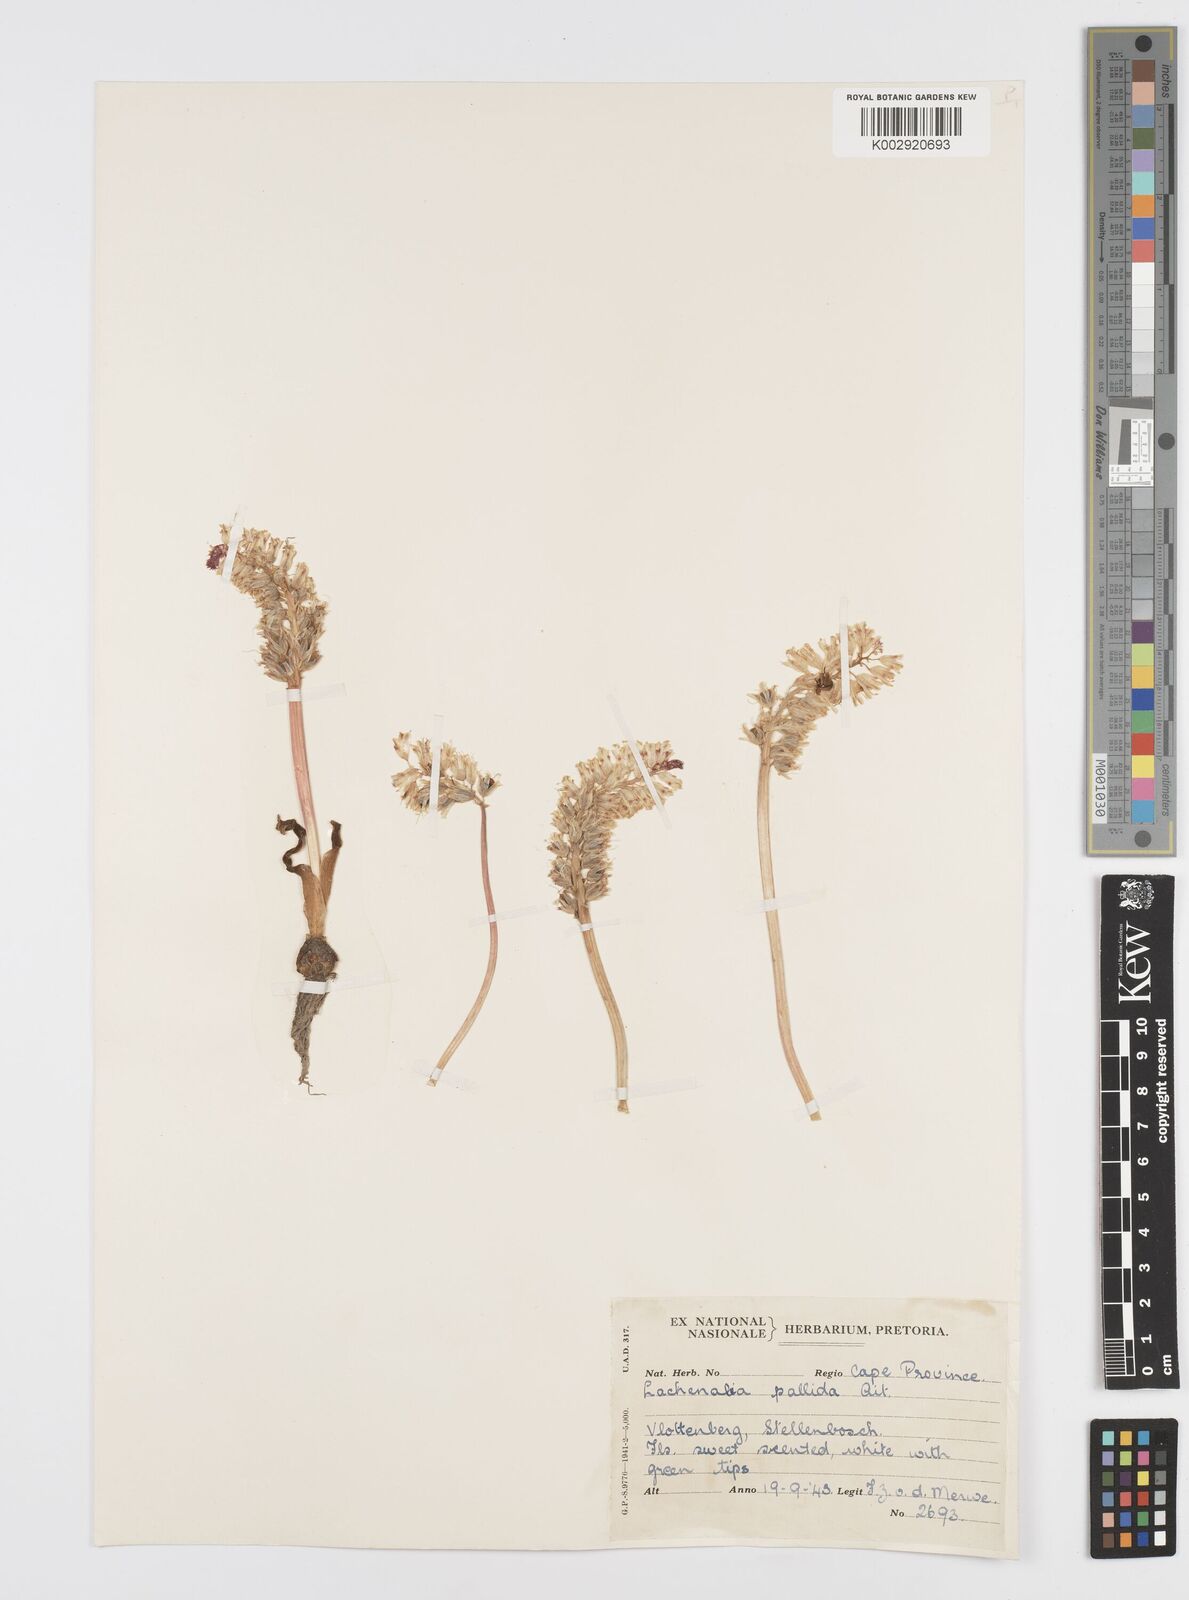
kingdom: Plantae
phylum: Tracheophyta
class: Liliopsida
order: Asparagales
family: Asparagaceae
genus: Lachenalia
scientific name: Lachenalia pallida
